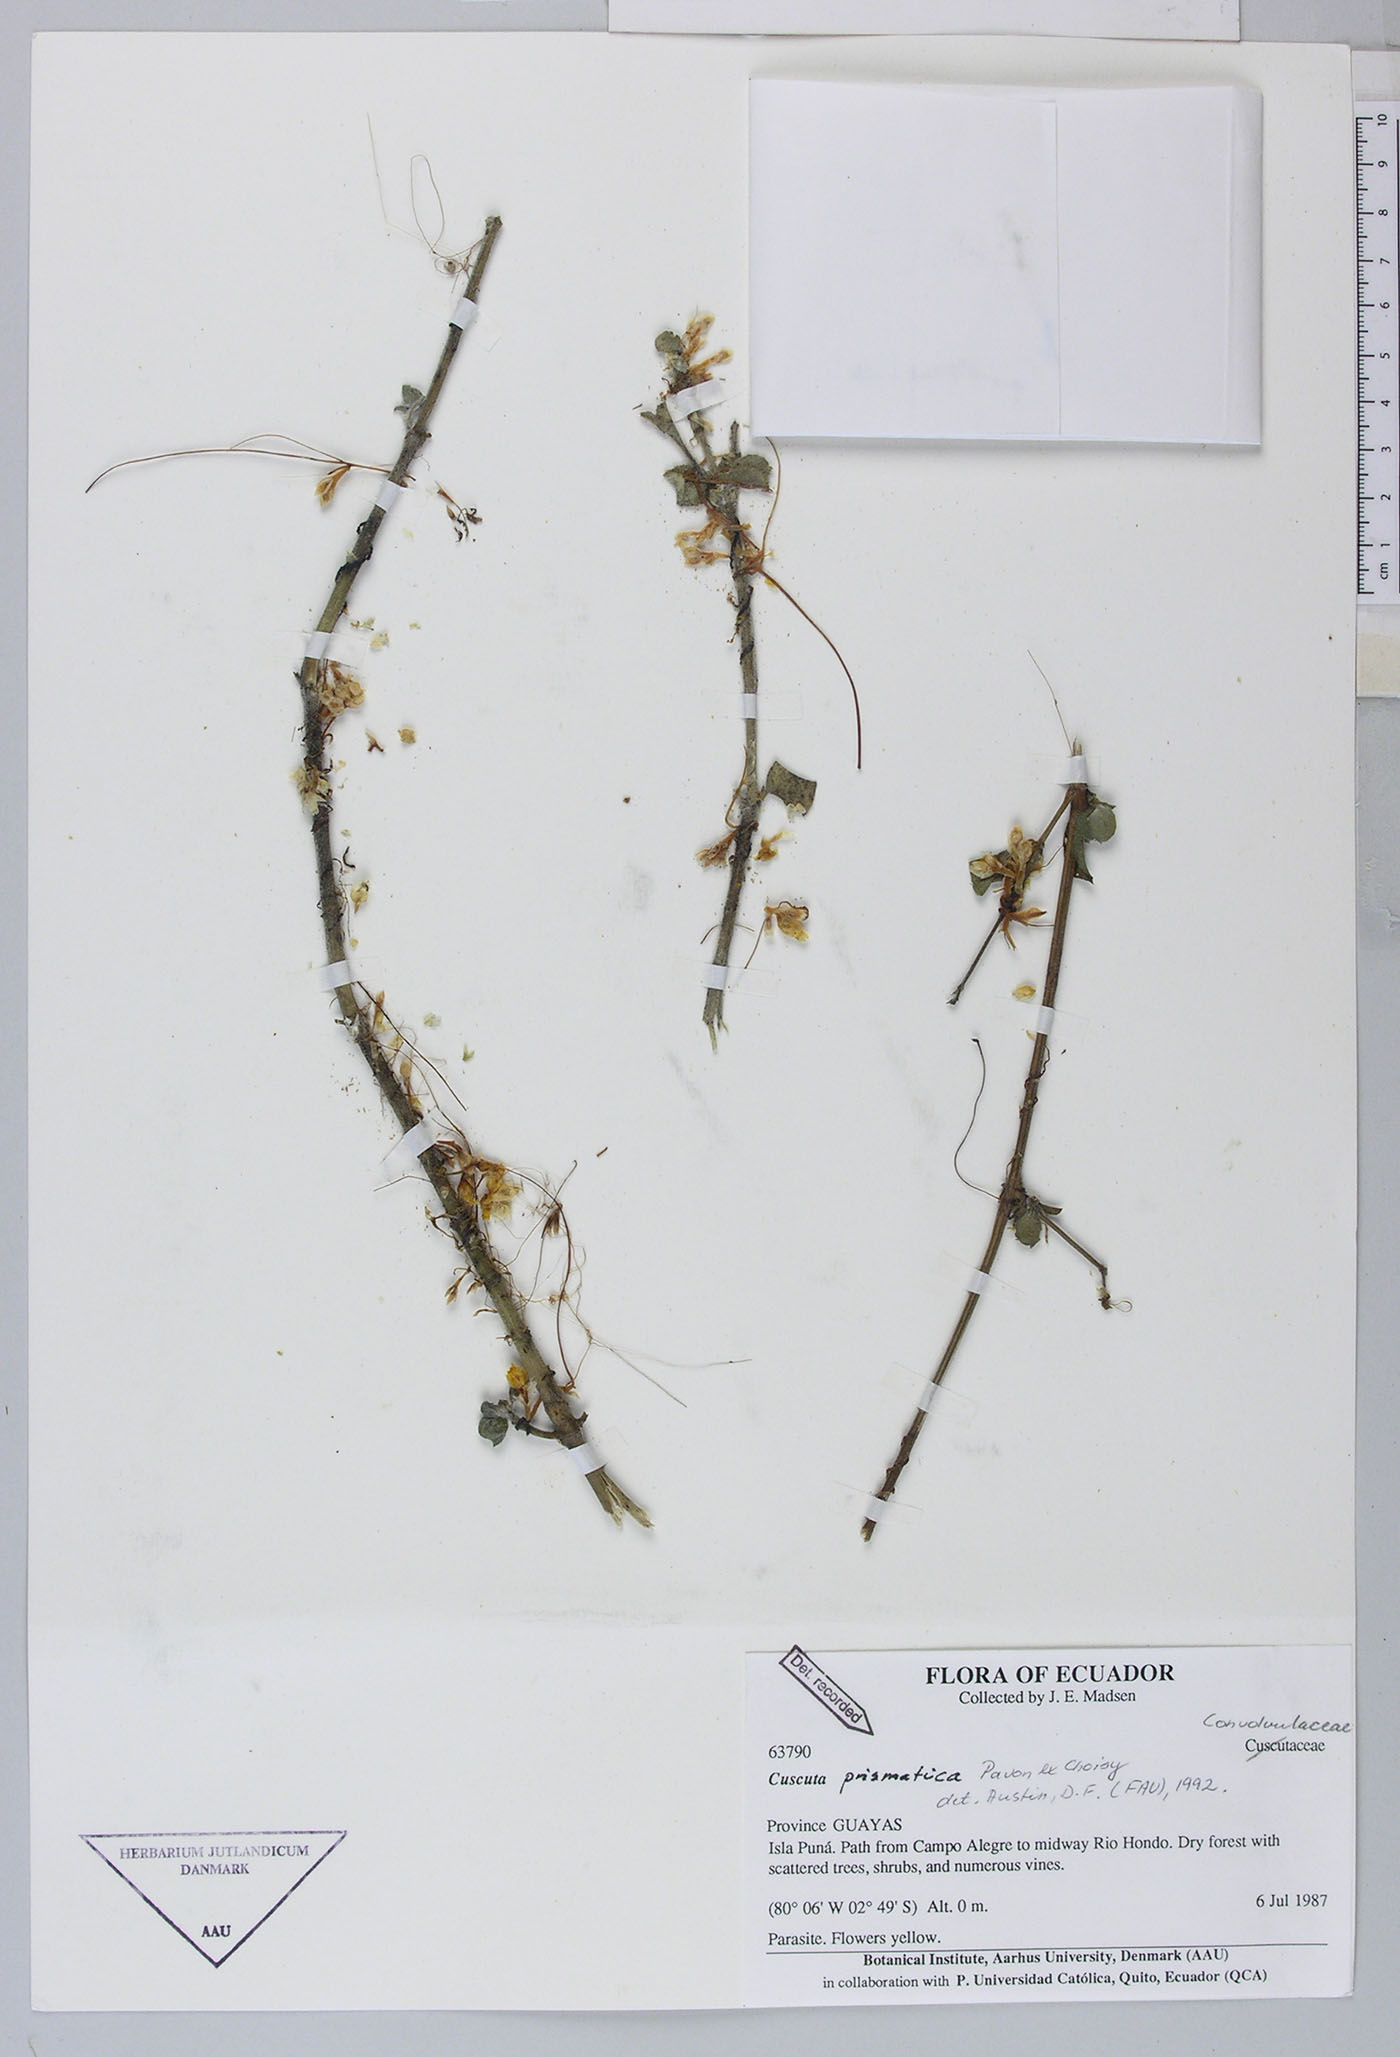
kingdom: Plantae
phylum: Tracheophyta
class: Magnoliopsida
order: Solanales
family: Convolvulaceae
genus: Cuscuta
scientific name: Cuscuta paitana
